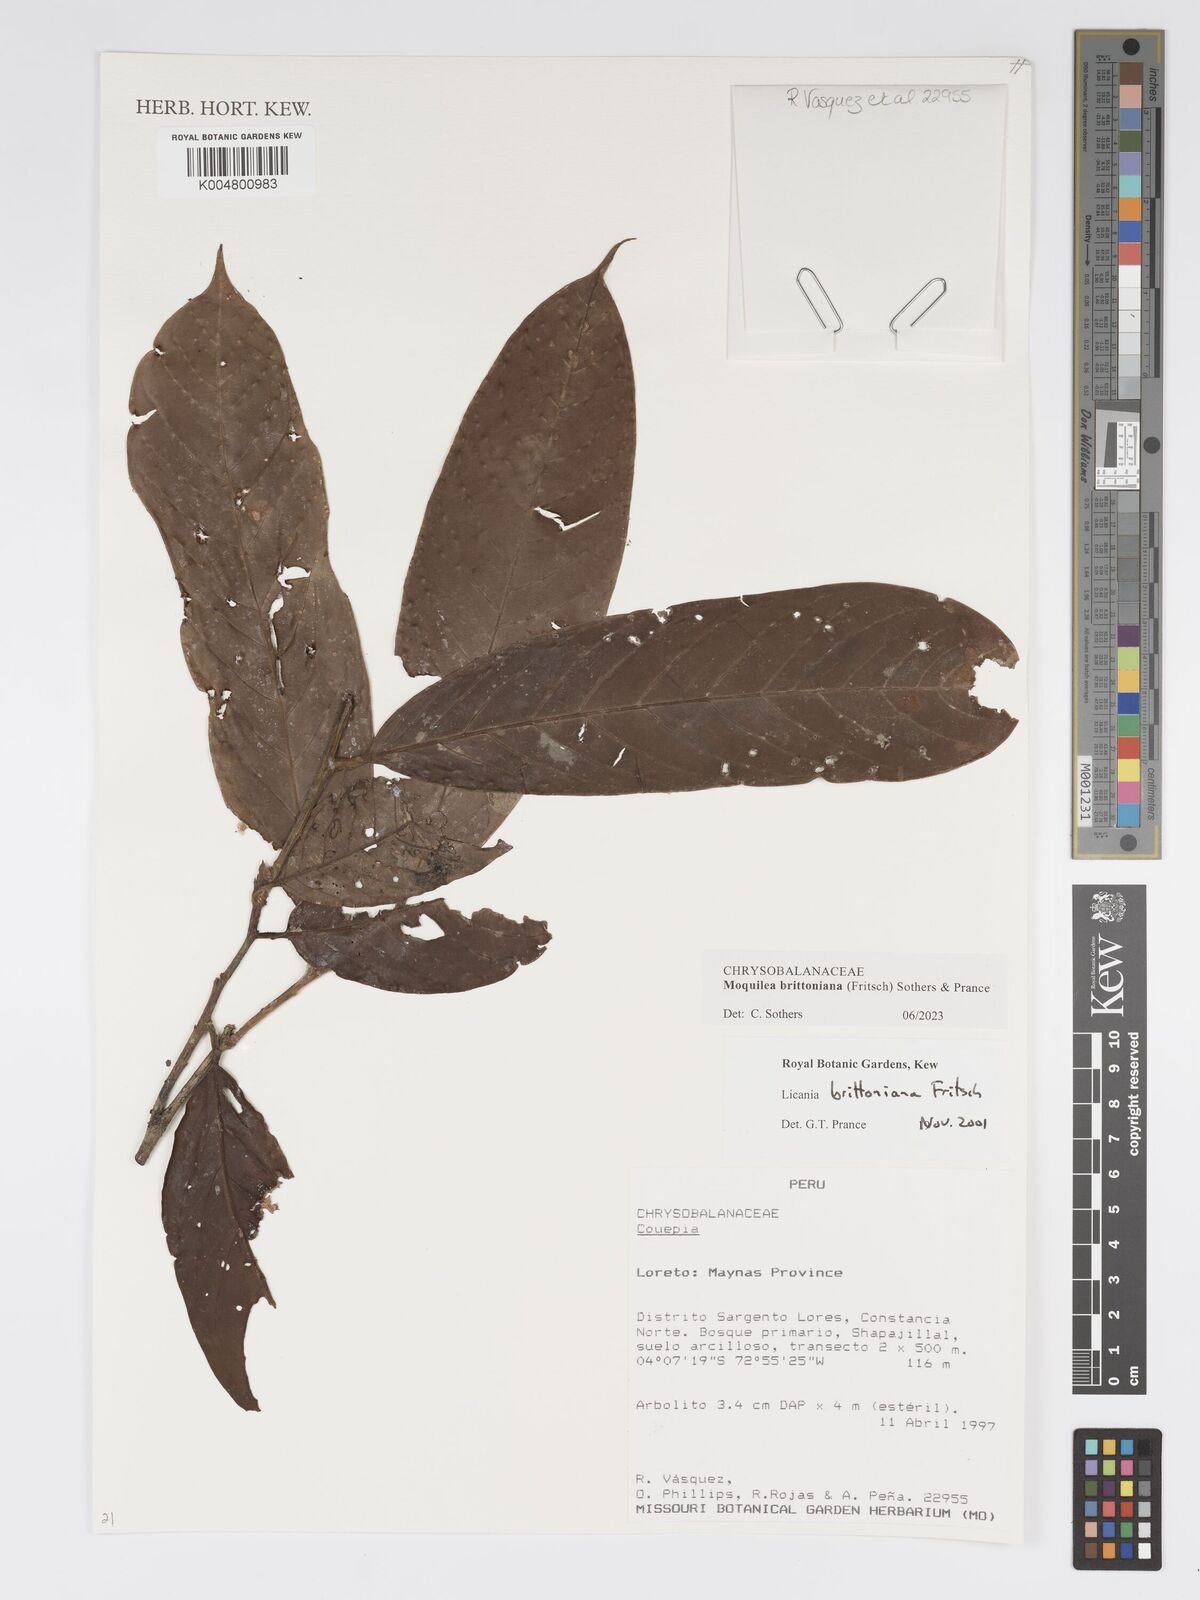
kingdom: Plantae
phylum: Tracheophyta
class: Magnoliopsida
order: Malpighiales
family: Chrysobalanaceae
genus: Moquilea
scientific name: Moquilea brittoniana
